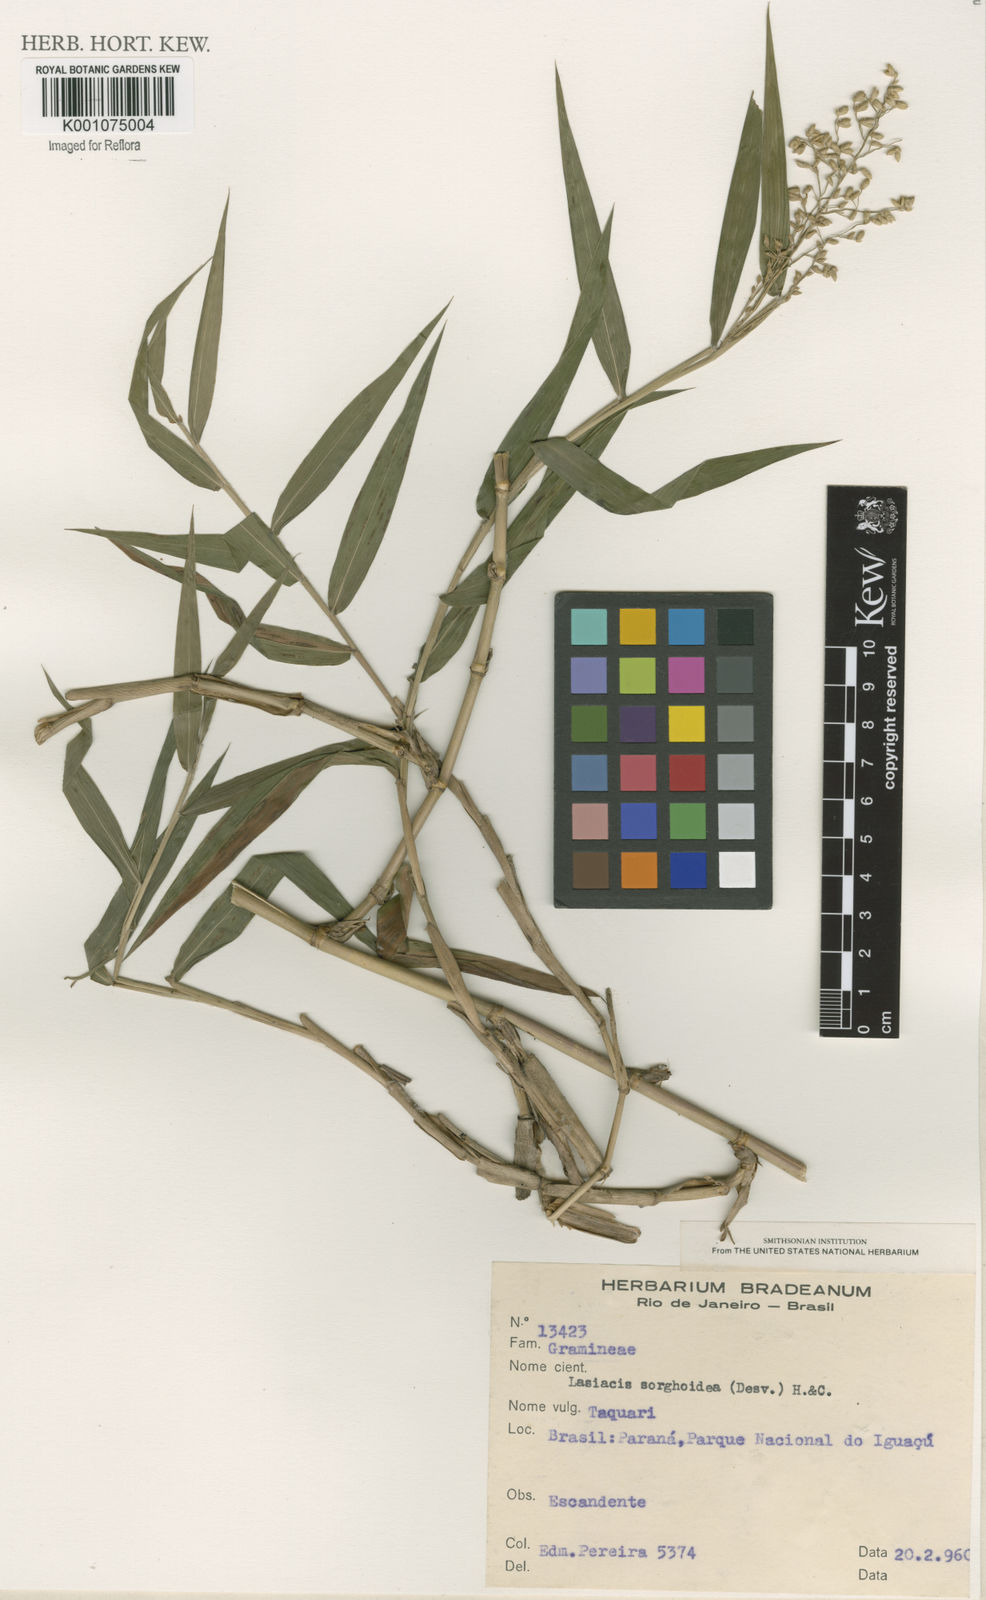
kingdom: Plantae
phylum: Tracheophyta
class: Liliopsida
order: Poales
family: Poaceae
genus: Lasiacis
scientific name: Lasiacis maculata
